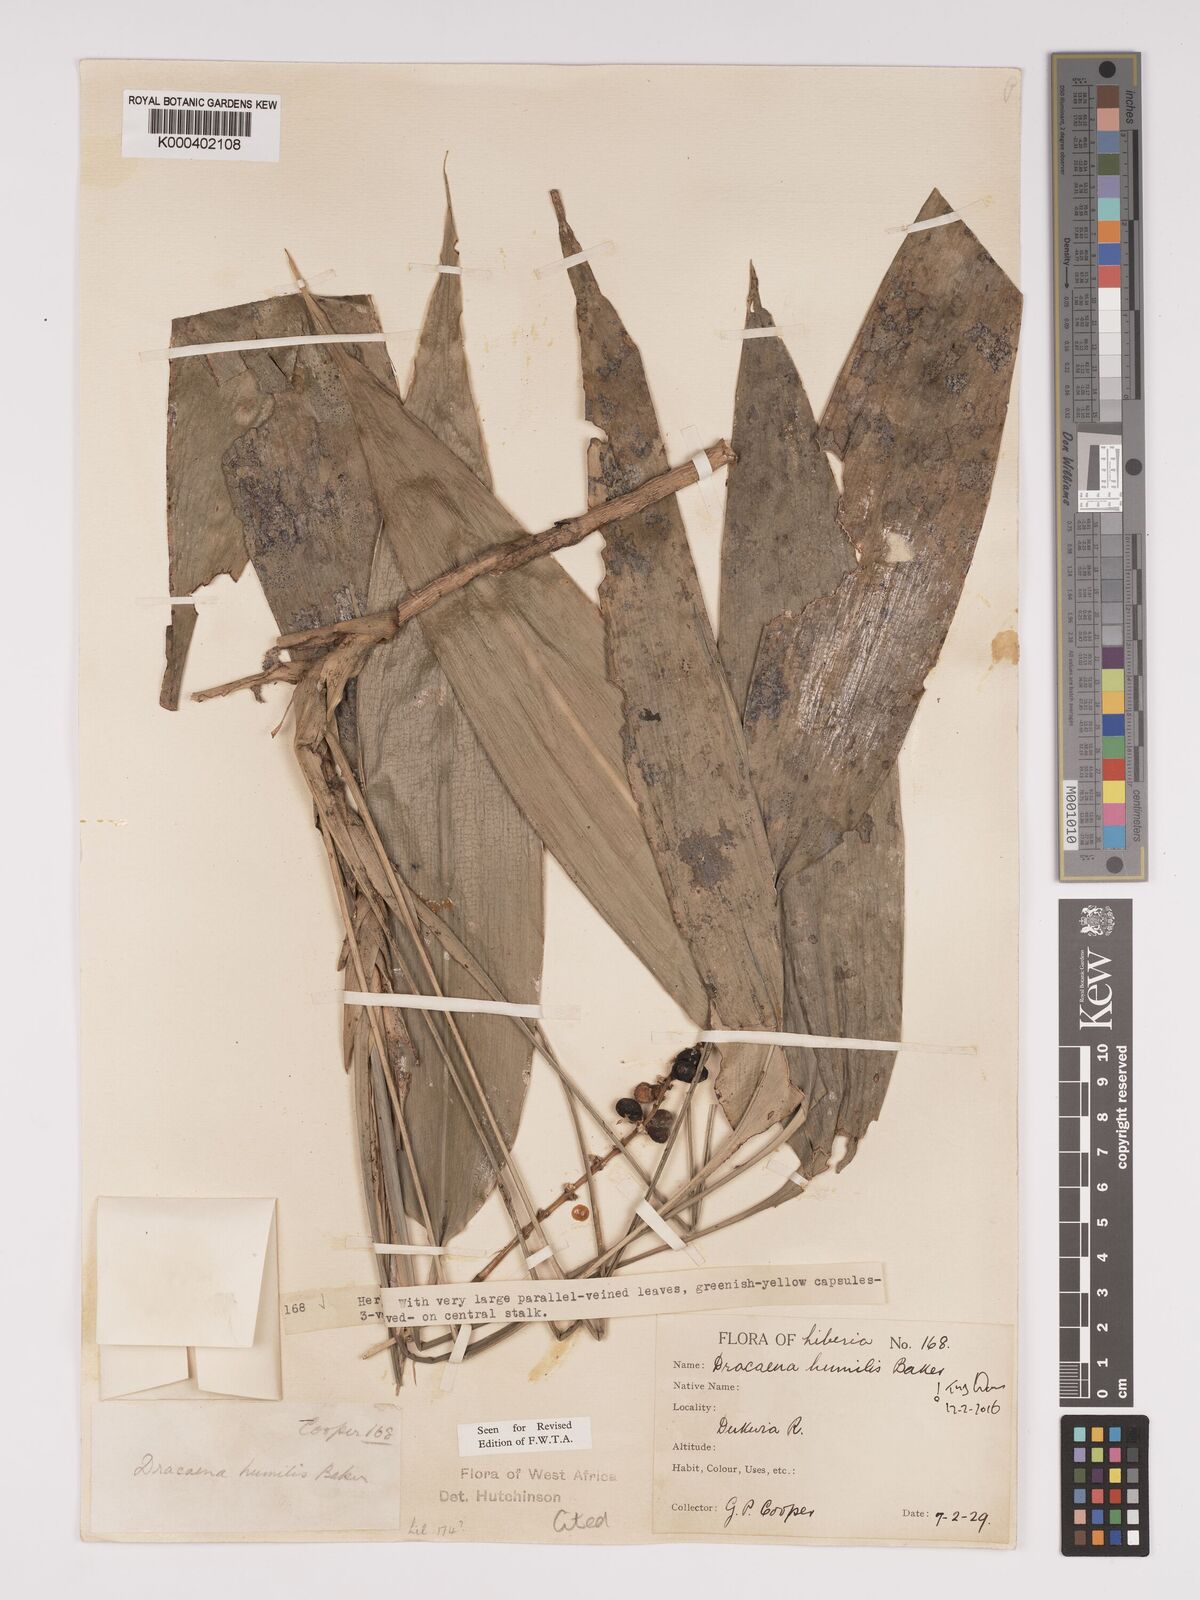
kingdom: Plantae
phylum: Tracheophyta
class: Liliopsida
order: Asparagales
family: Asparagaceae
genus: Dracaena
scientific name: Dracaena aubryana
